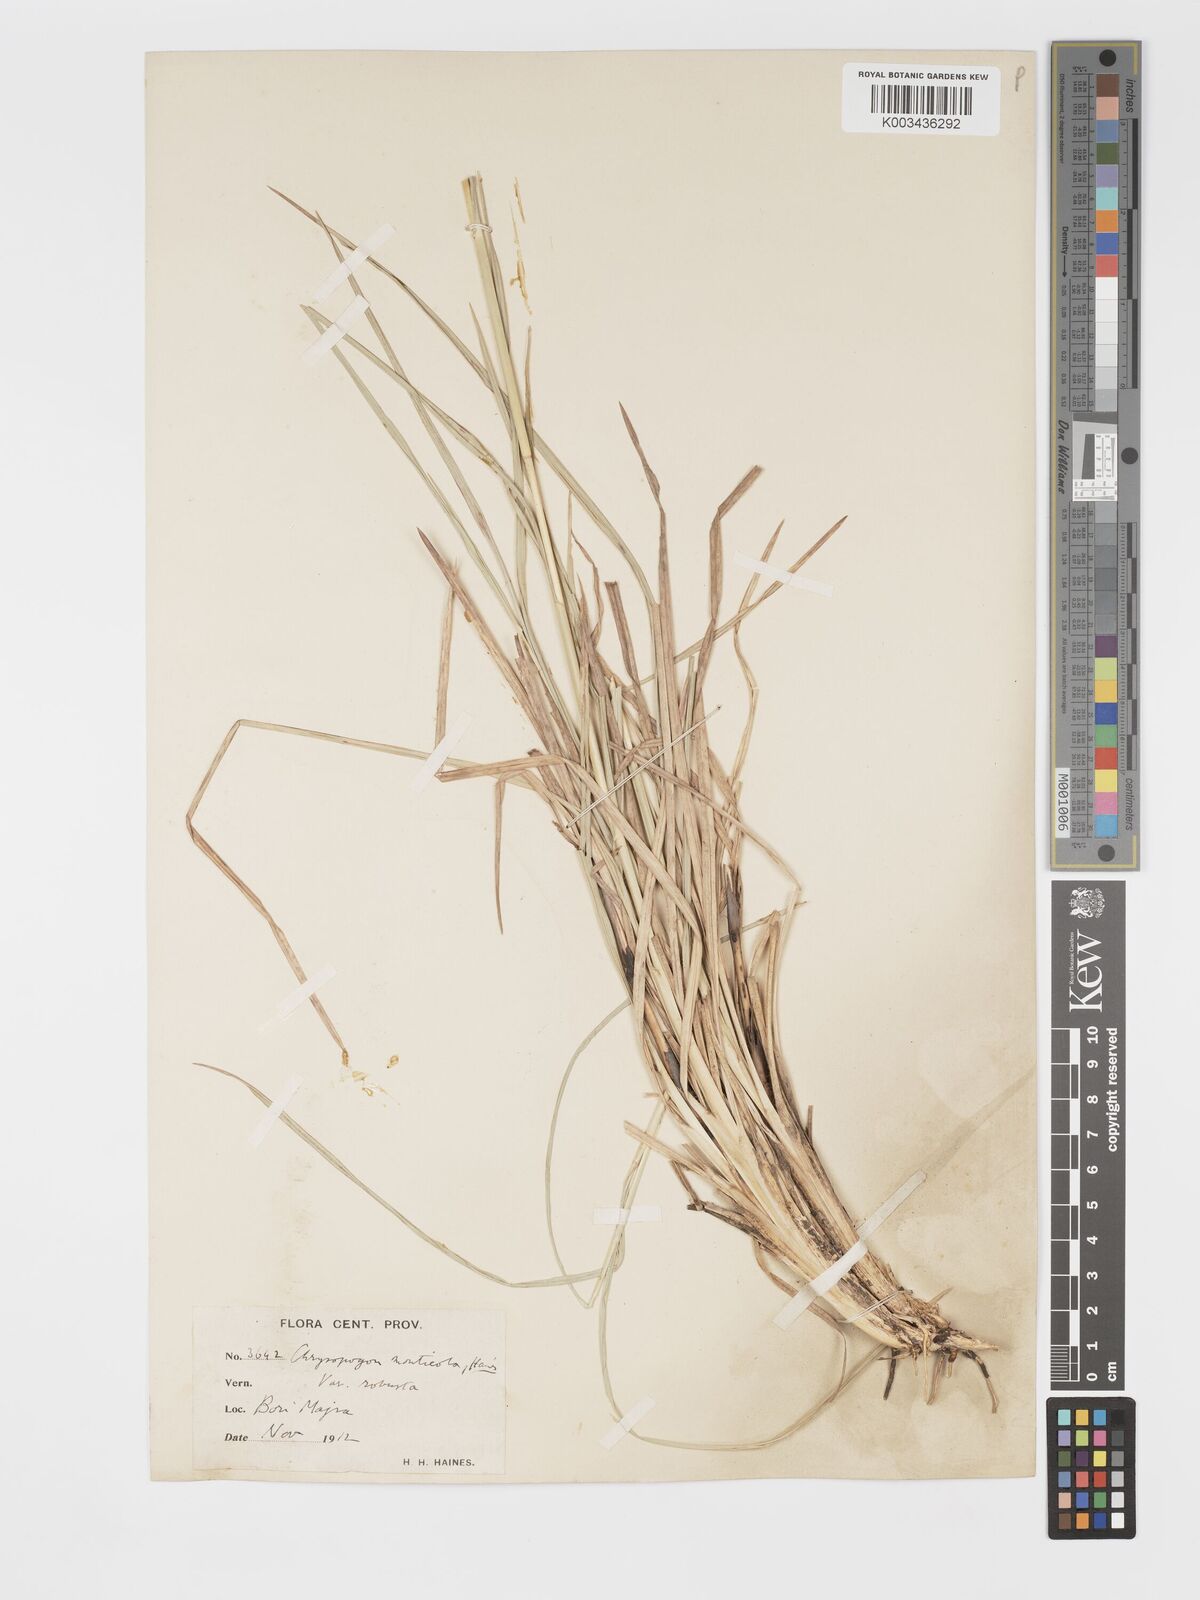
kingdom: Plantae
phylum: Tracheophyta
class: Liliopsida
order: Poales
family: Poaceae
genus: Chrysopogon
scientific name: Chrysopogon fulvus
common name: Red false beardgrass
